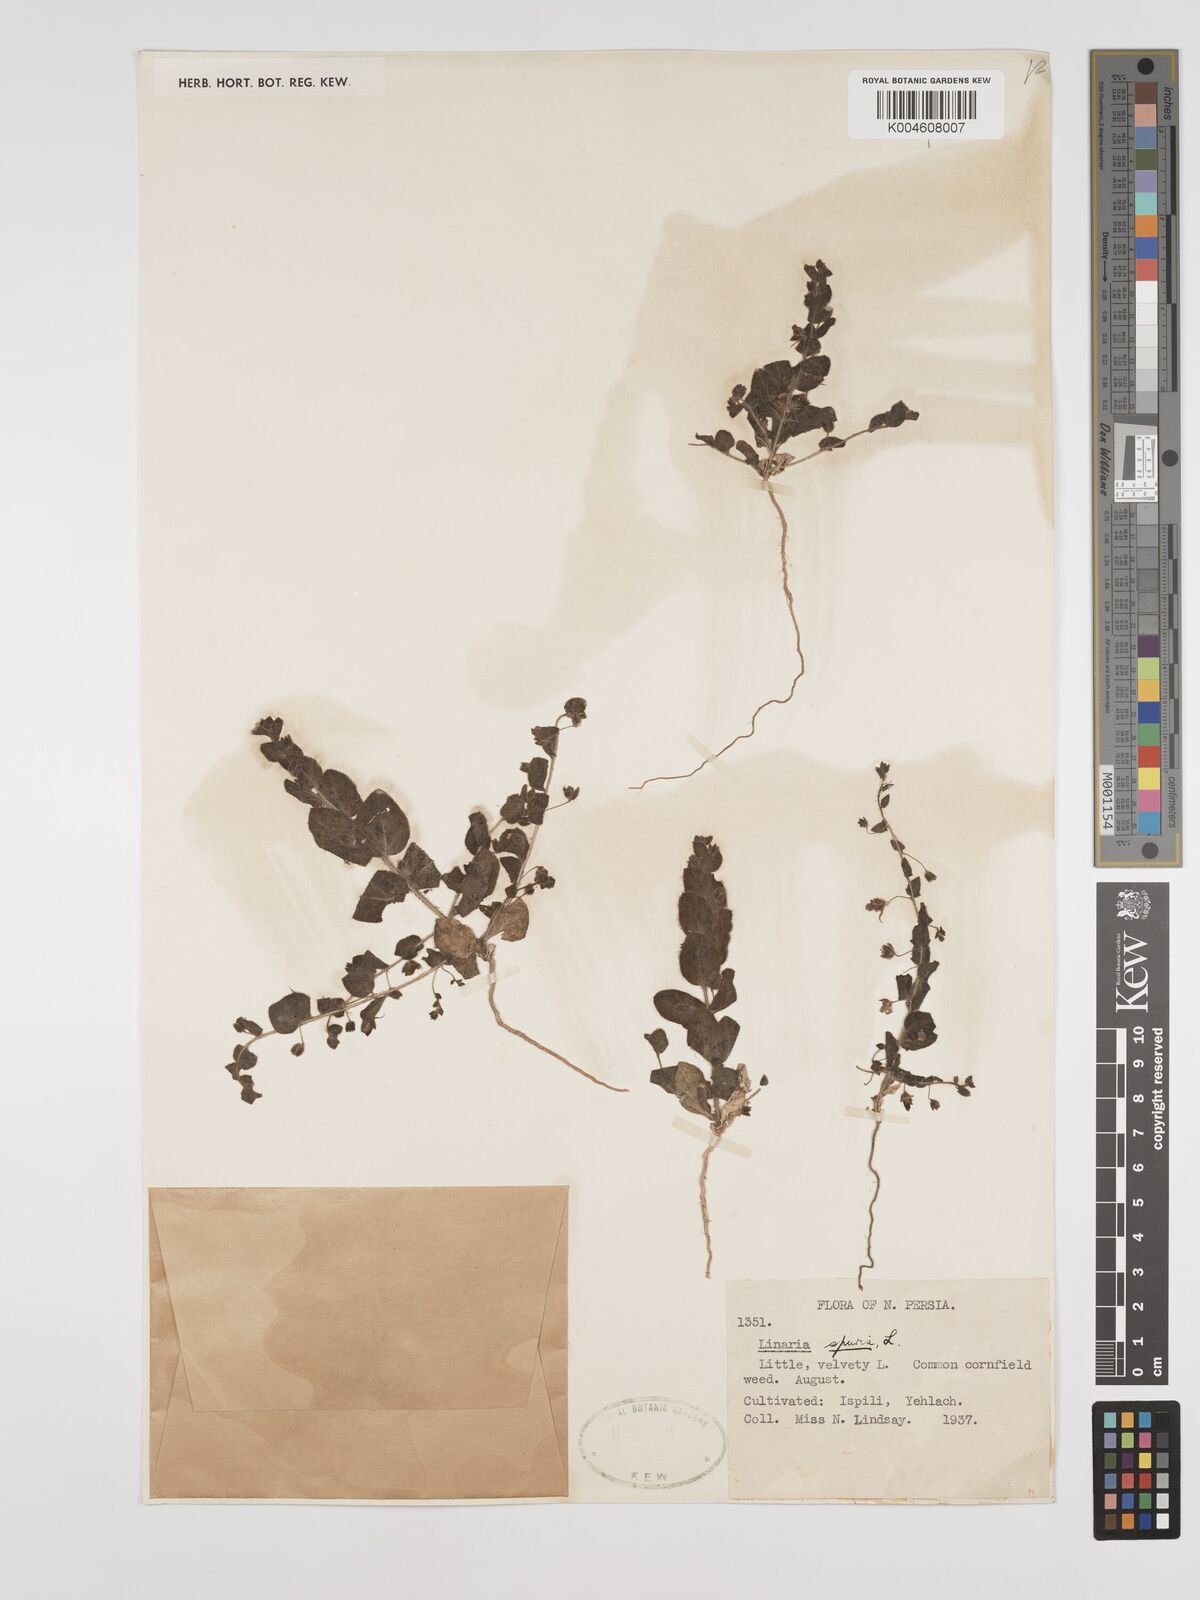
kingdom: Plantae
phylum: Tracheophyta
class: Magnoliopsida
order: Lamiales
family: Plantaginaceae
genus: Kickxia
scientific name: Kickxia spuria
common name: Round-leaved fluellen
